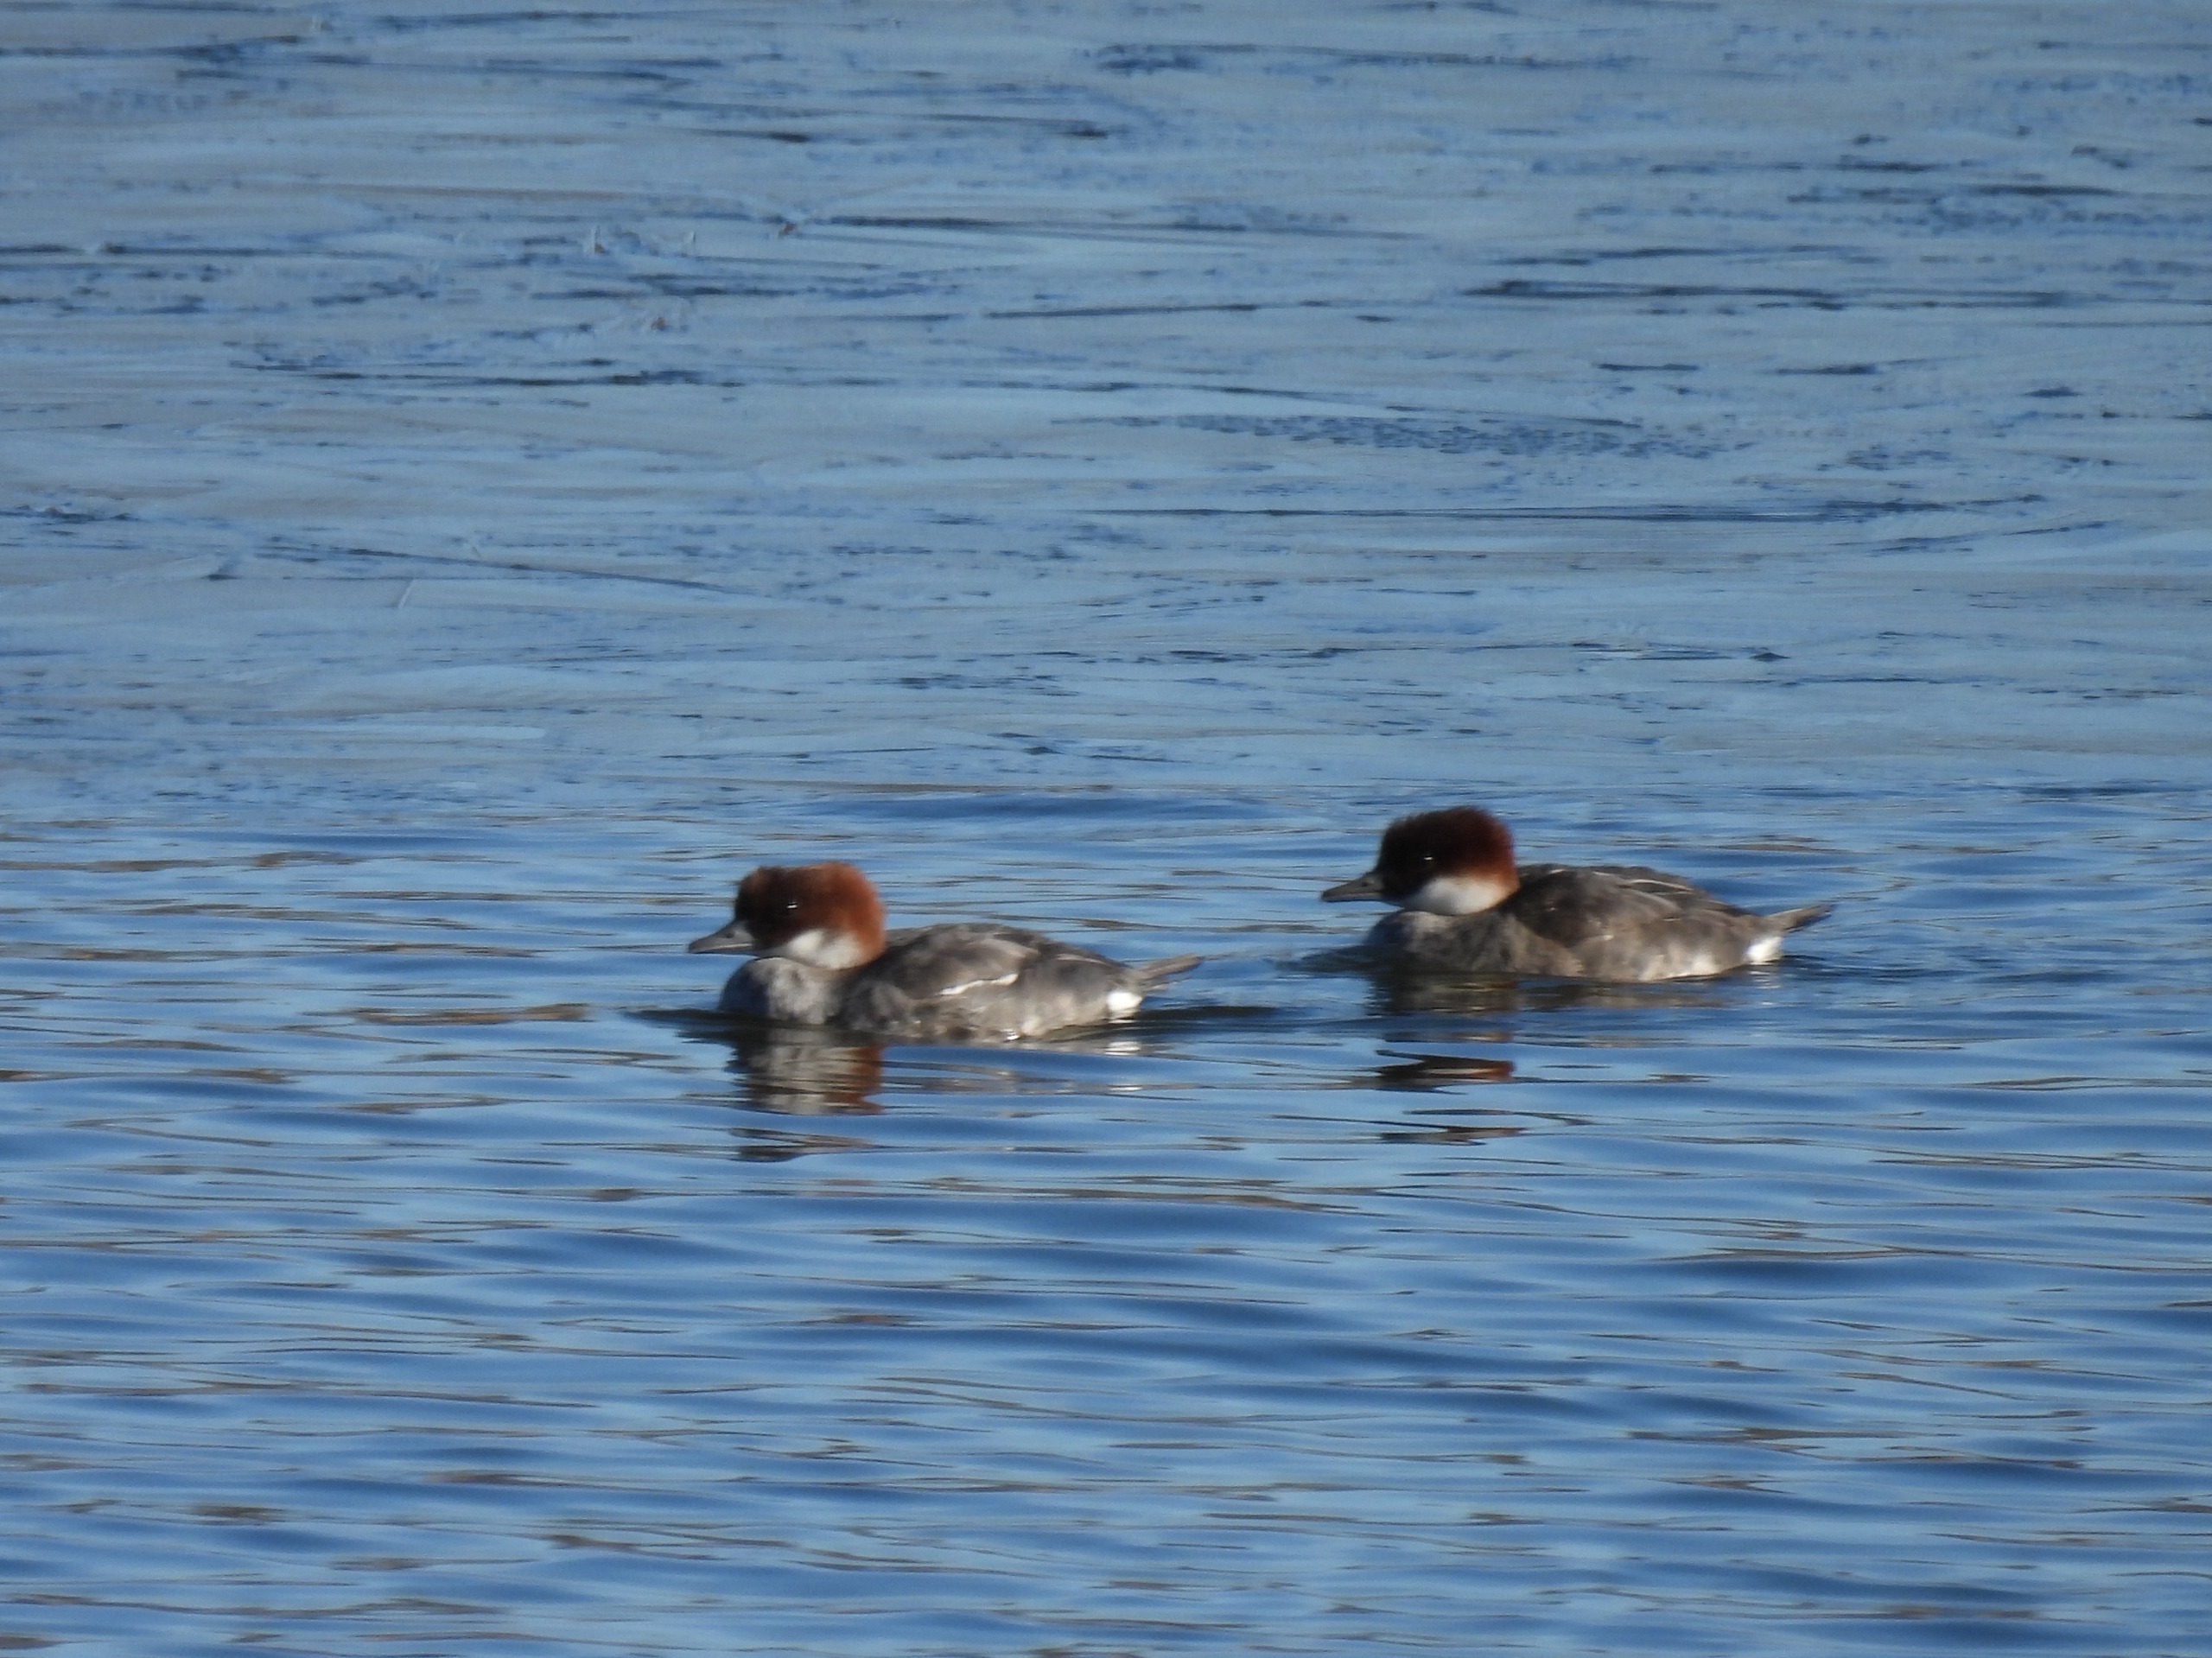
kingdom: Animalia
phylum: Chordata
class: Aves
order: Anseriformes
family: Anatidae
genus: Mergellus
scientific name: Mergellus albellus
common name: Lille skallesluger
